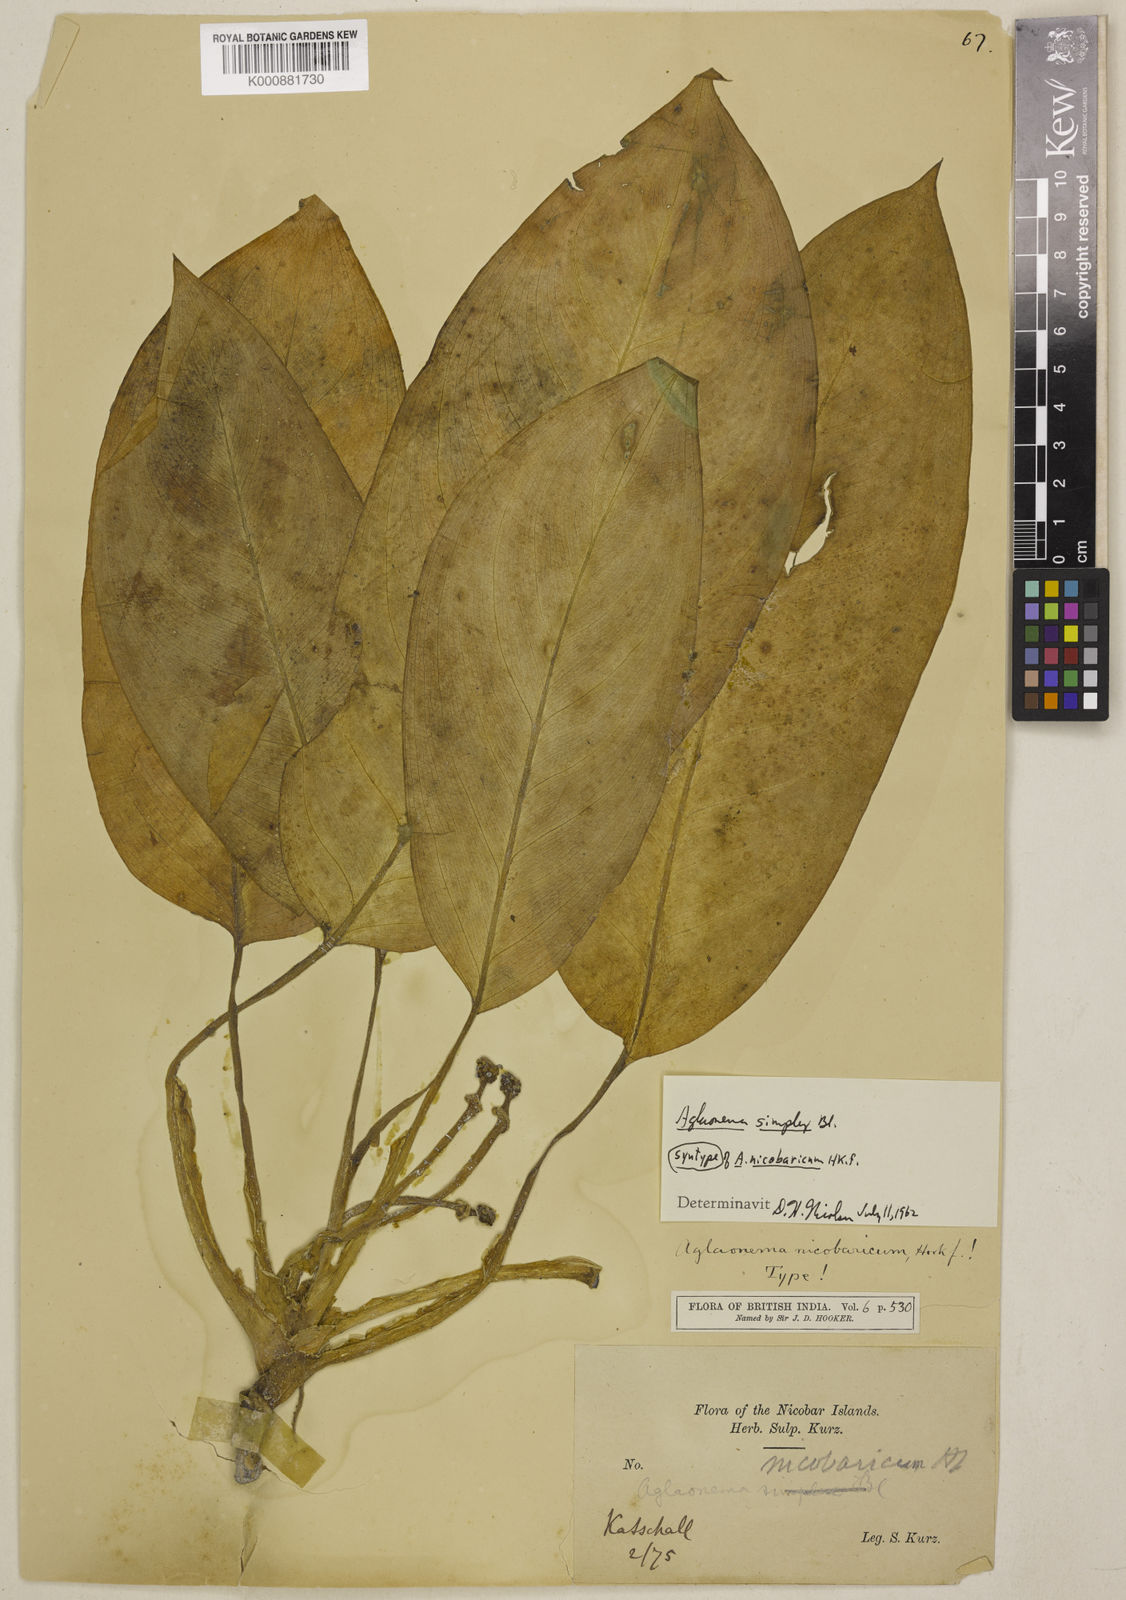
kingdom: Plantae
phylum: Tracheophyta
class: Liliopsida
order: Alismatales
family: Araceae
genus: Aglaonema
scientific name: Aglaonema simplex
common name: Malayan-sword
